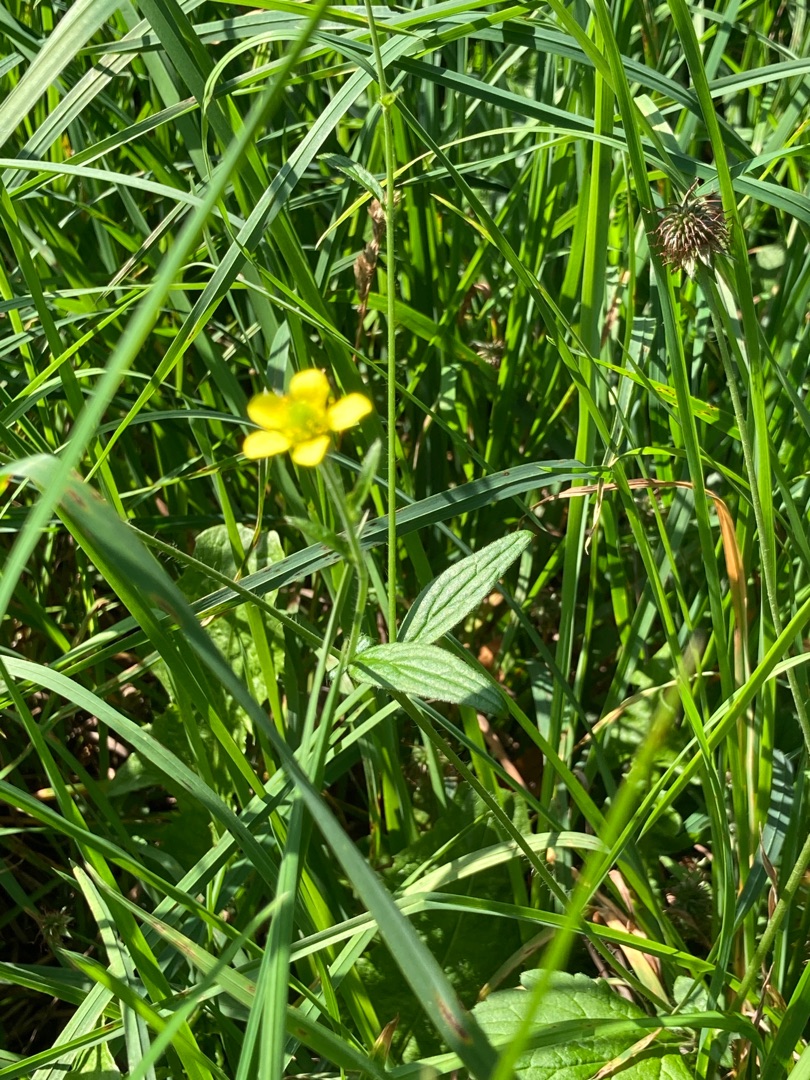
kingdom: Plantae
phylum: Tracheophyta
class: Magnoliopsida
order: Rosales
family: Rosaceae
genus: Geum
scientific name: Geum urbanum
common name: Feber-nellikerod
